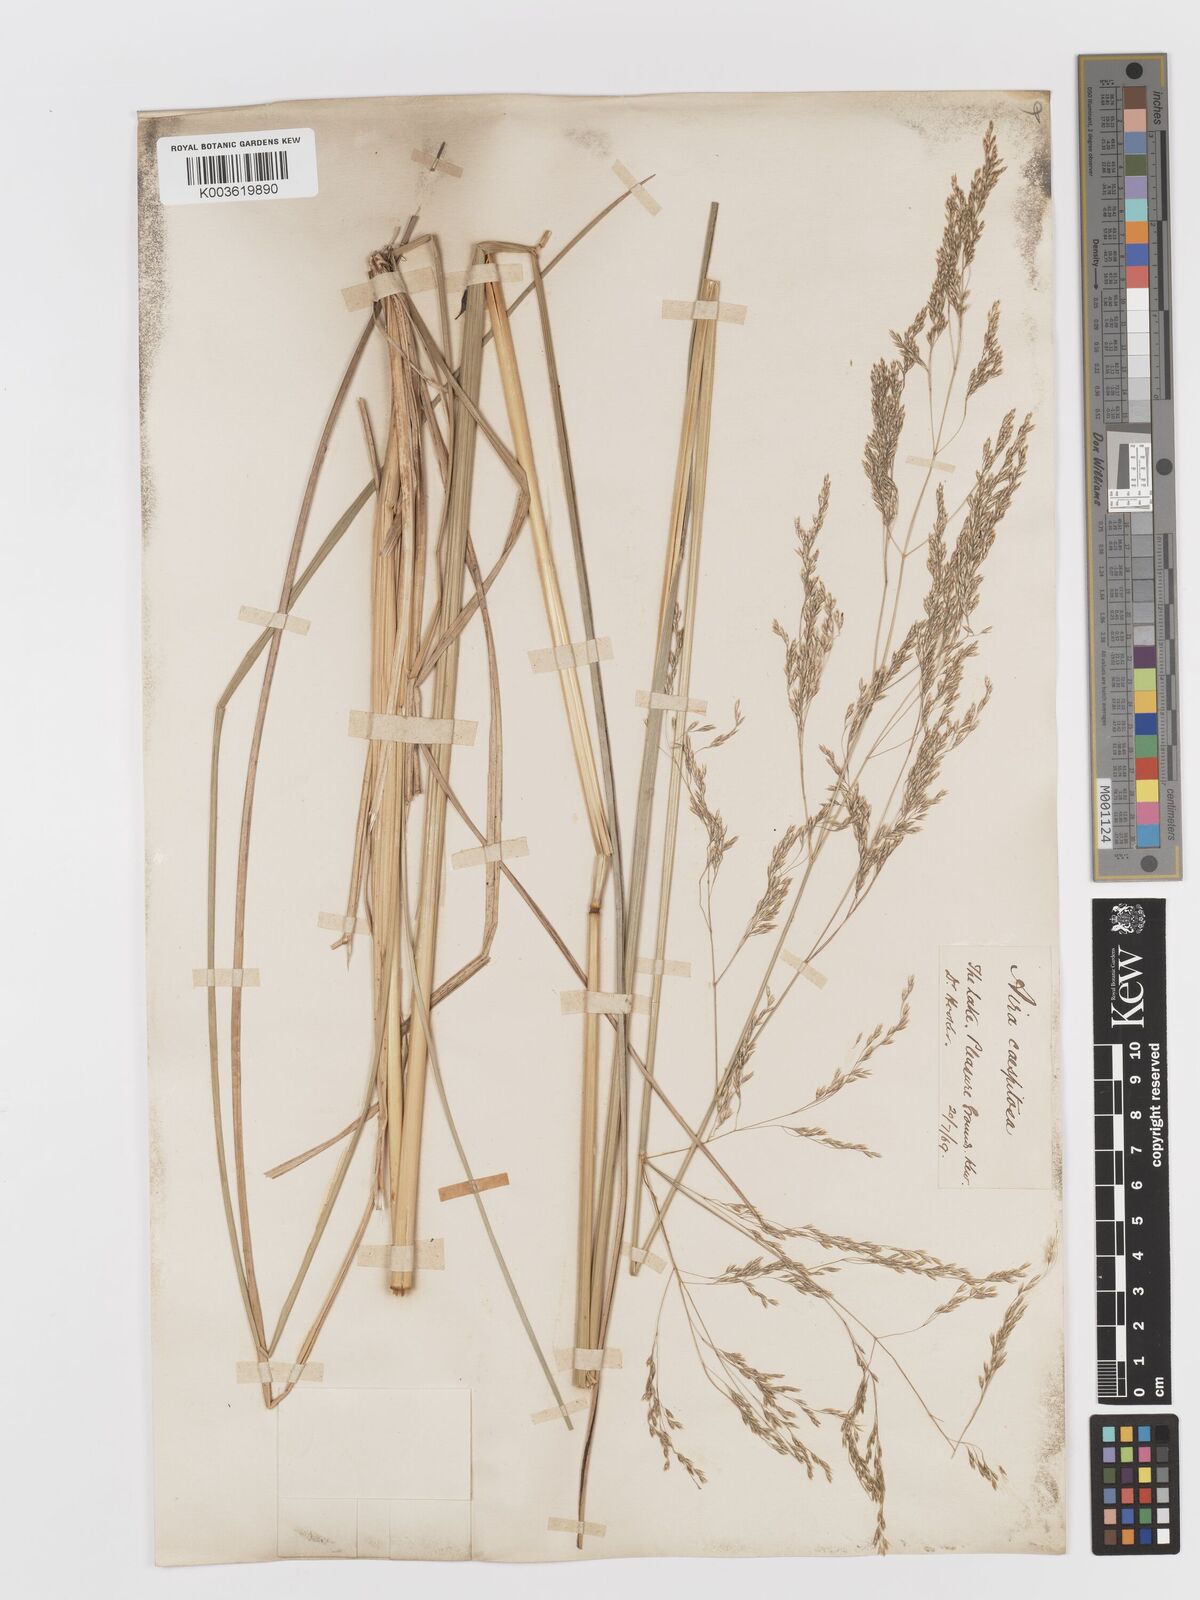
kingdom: Plantae
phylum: Tracheophyta
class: Liliopsida
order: Poales
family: Poaceae
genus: Deschampsia
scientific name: Deschampsia
